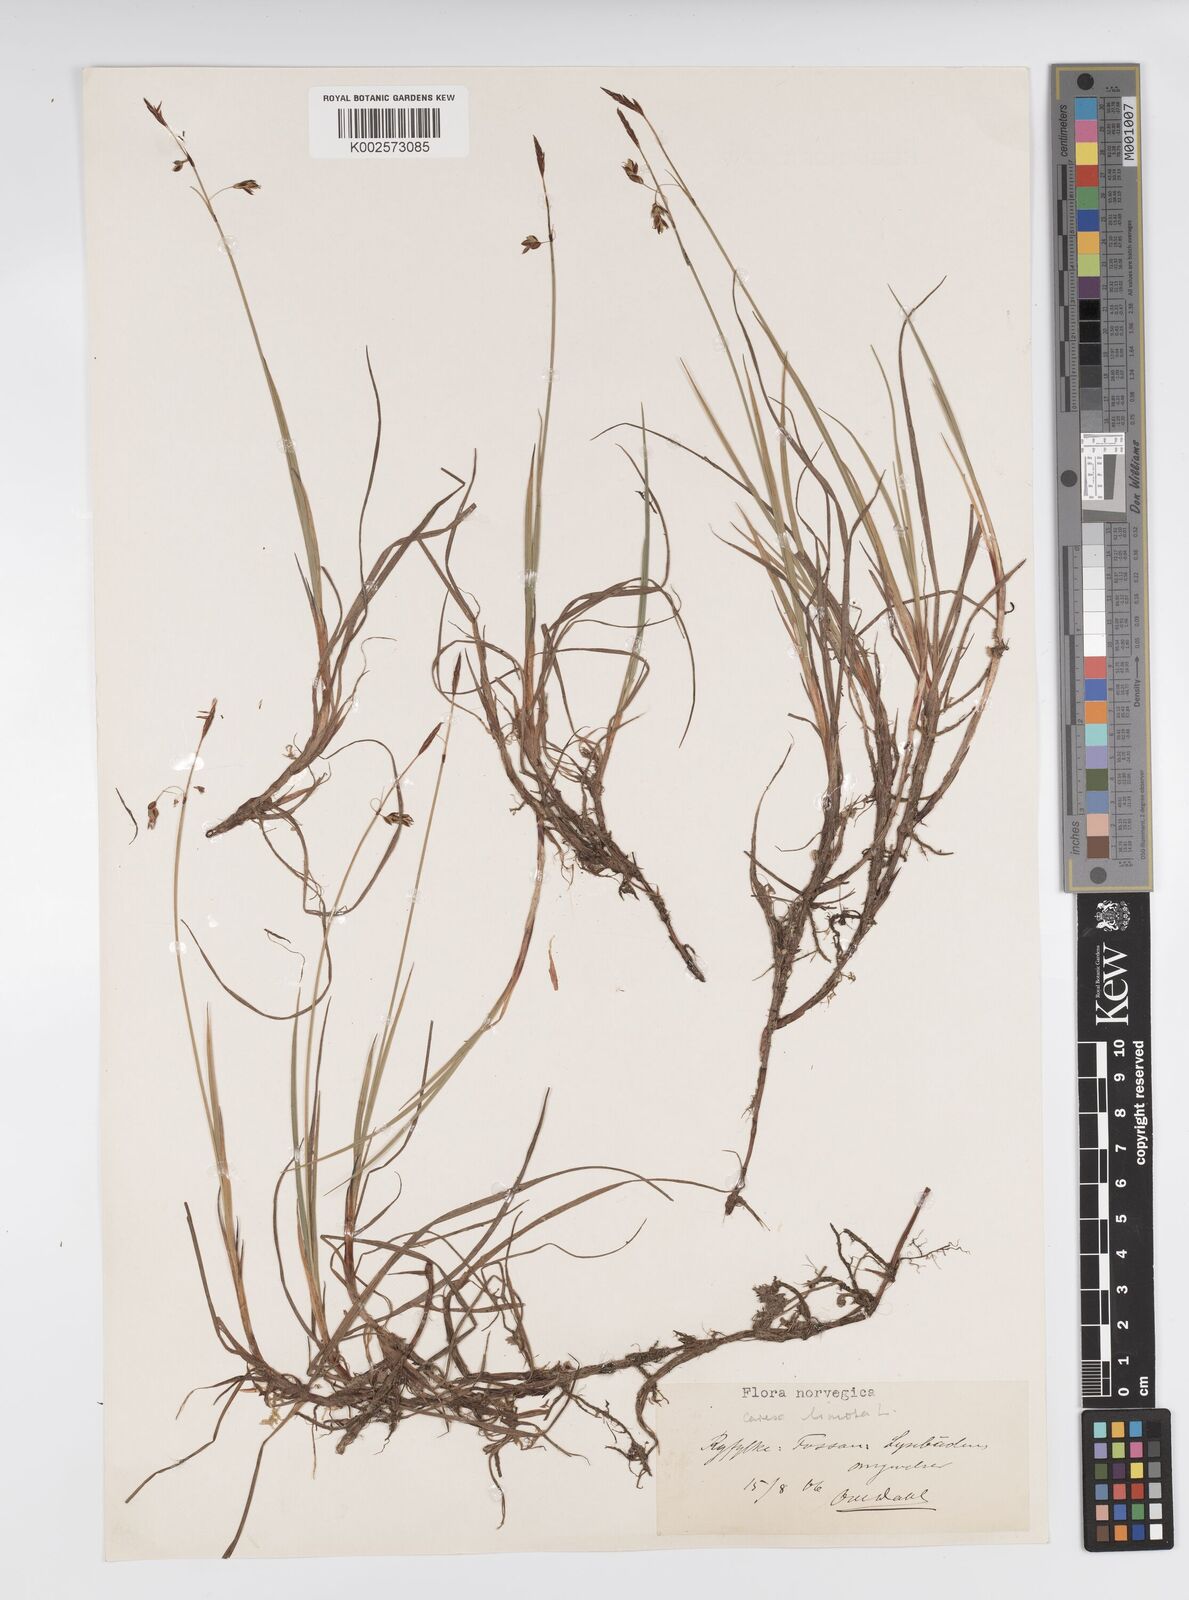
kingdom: Plantae
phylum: Tracheophyta
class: Liliopsida
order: Poales
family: Cyperaceae
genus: Carex
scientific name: Carex limosa
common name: Bog sedge
